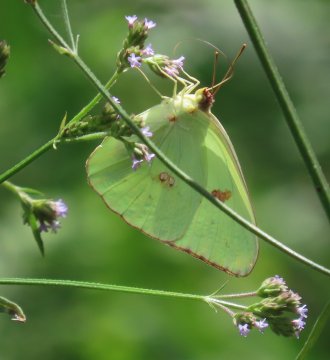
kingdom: Animalia
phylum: Arthropoda
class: Insecta
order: Lepidoptera
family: Pieridae
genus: Phoebis
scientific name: Phoebis sennae
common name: Cloudless Sulphur
